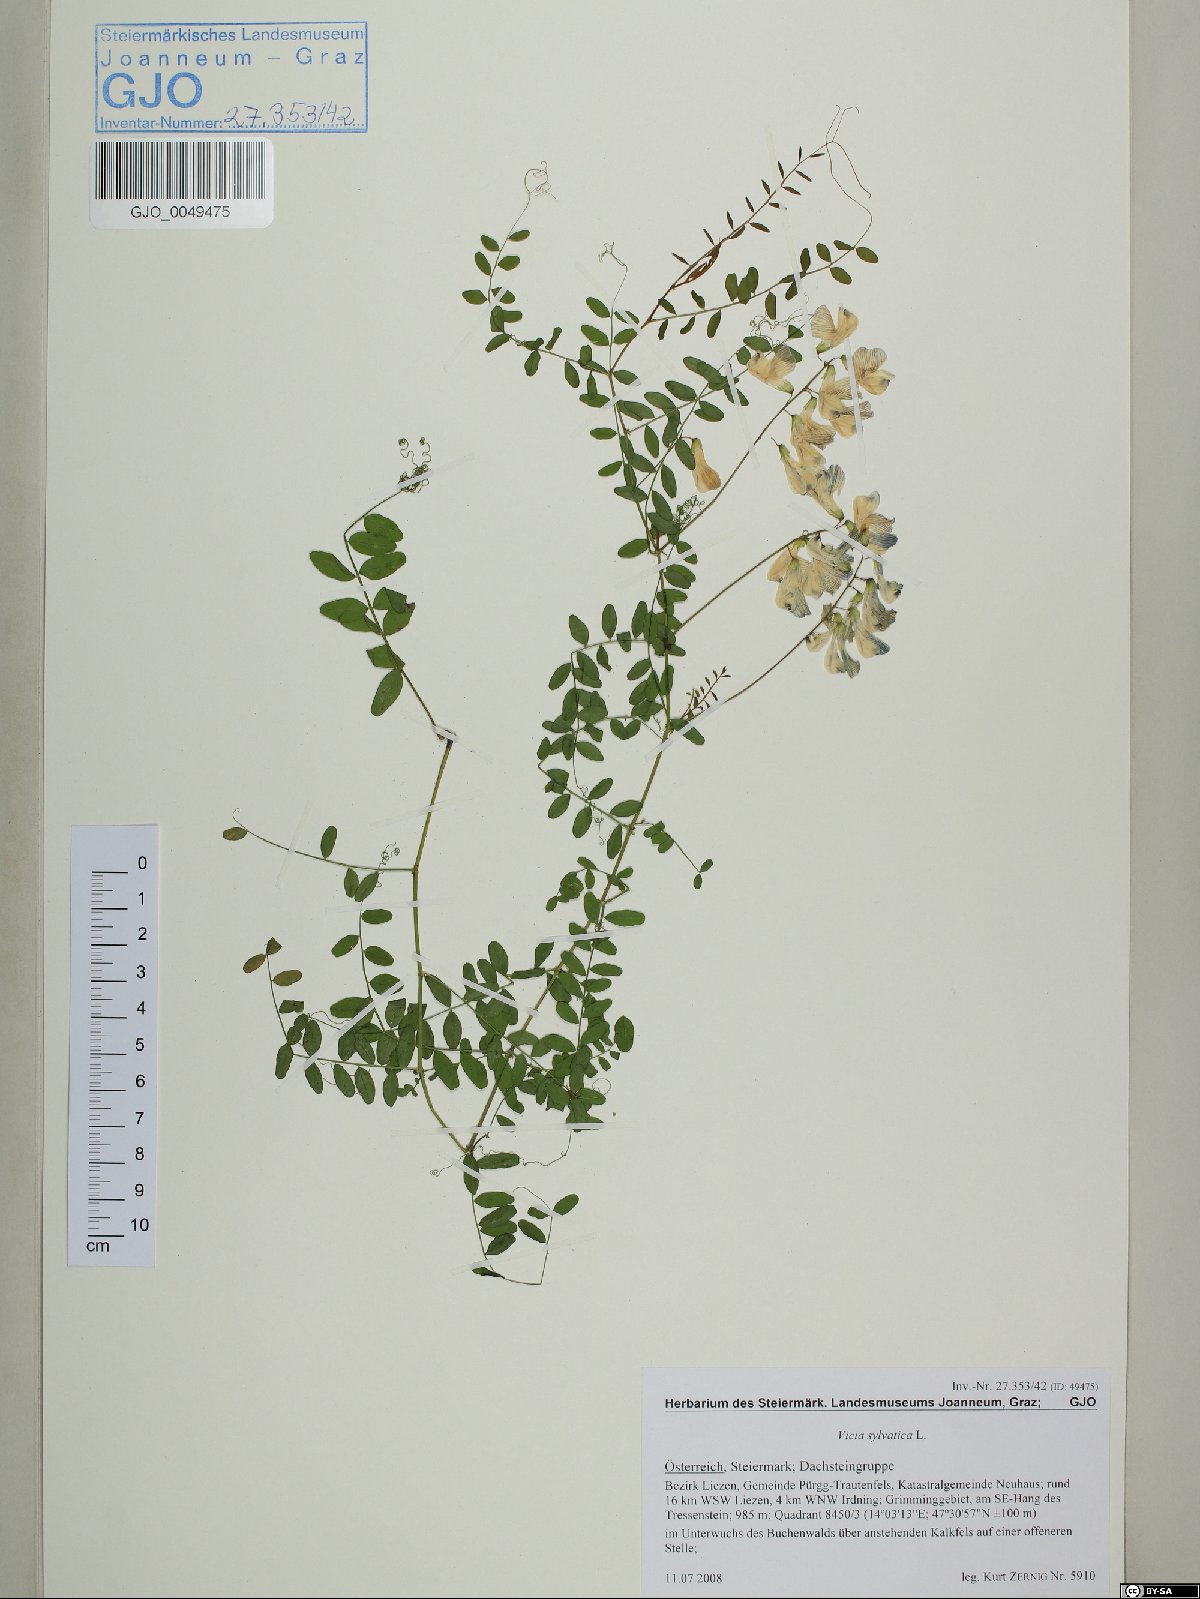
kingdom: Plantae
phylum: Tracheophyta
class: Magnoliopsida
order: Fabales
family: Fabaceae
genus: Vicia
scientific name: Vicia sylvatica
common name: Wood vetch
